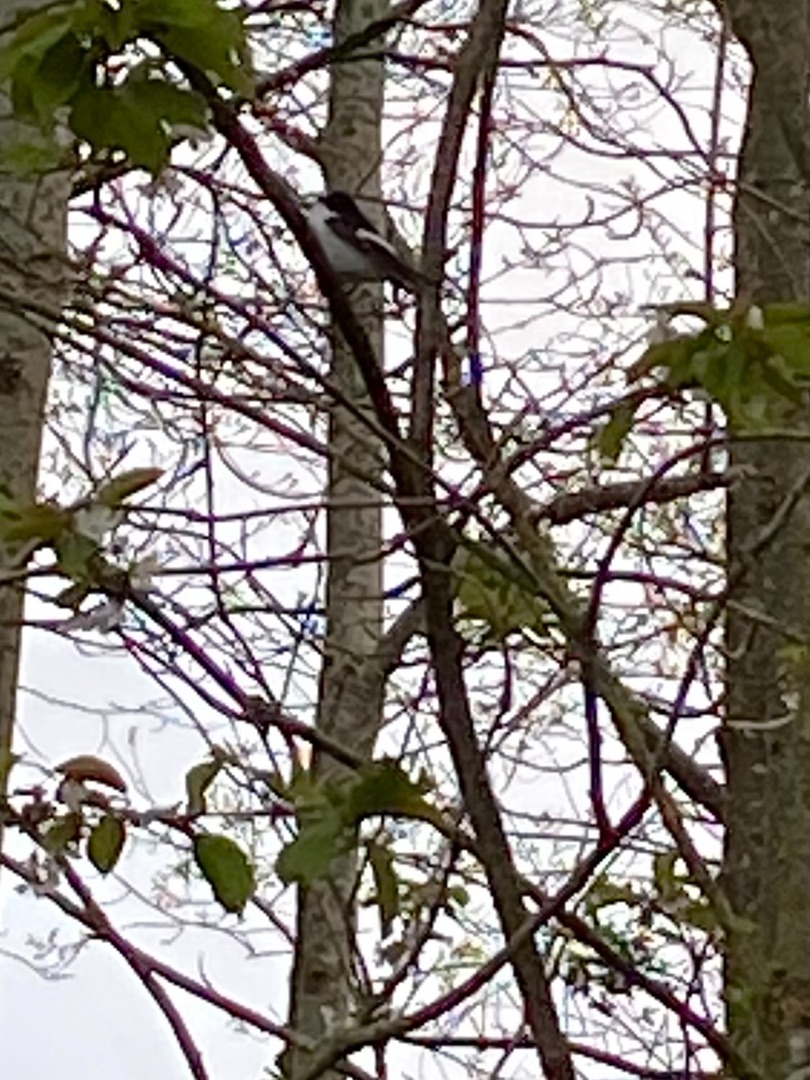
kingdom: Animalia
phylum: Chordata
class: Aves
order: Passeriformes
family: Muscicapidae
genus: Ficedula
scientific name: Ficedula hypoleuca
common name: Broget fluesnapper
